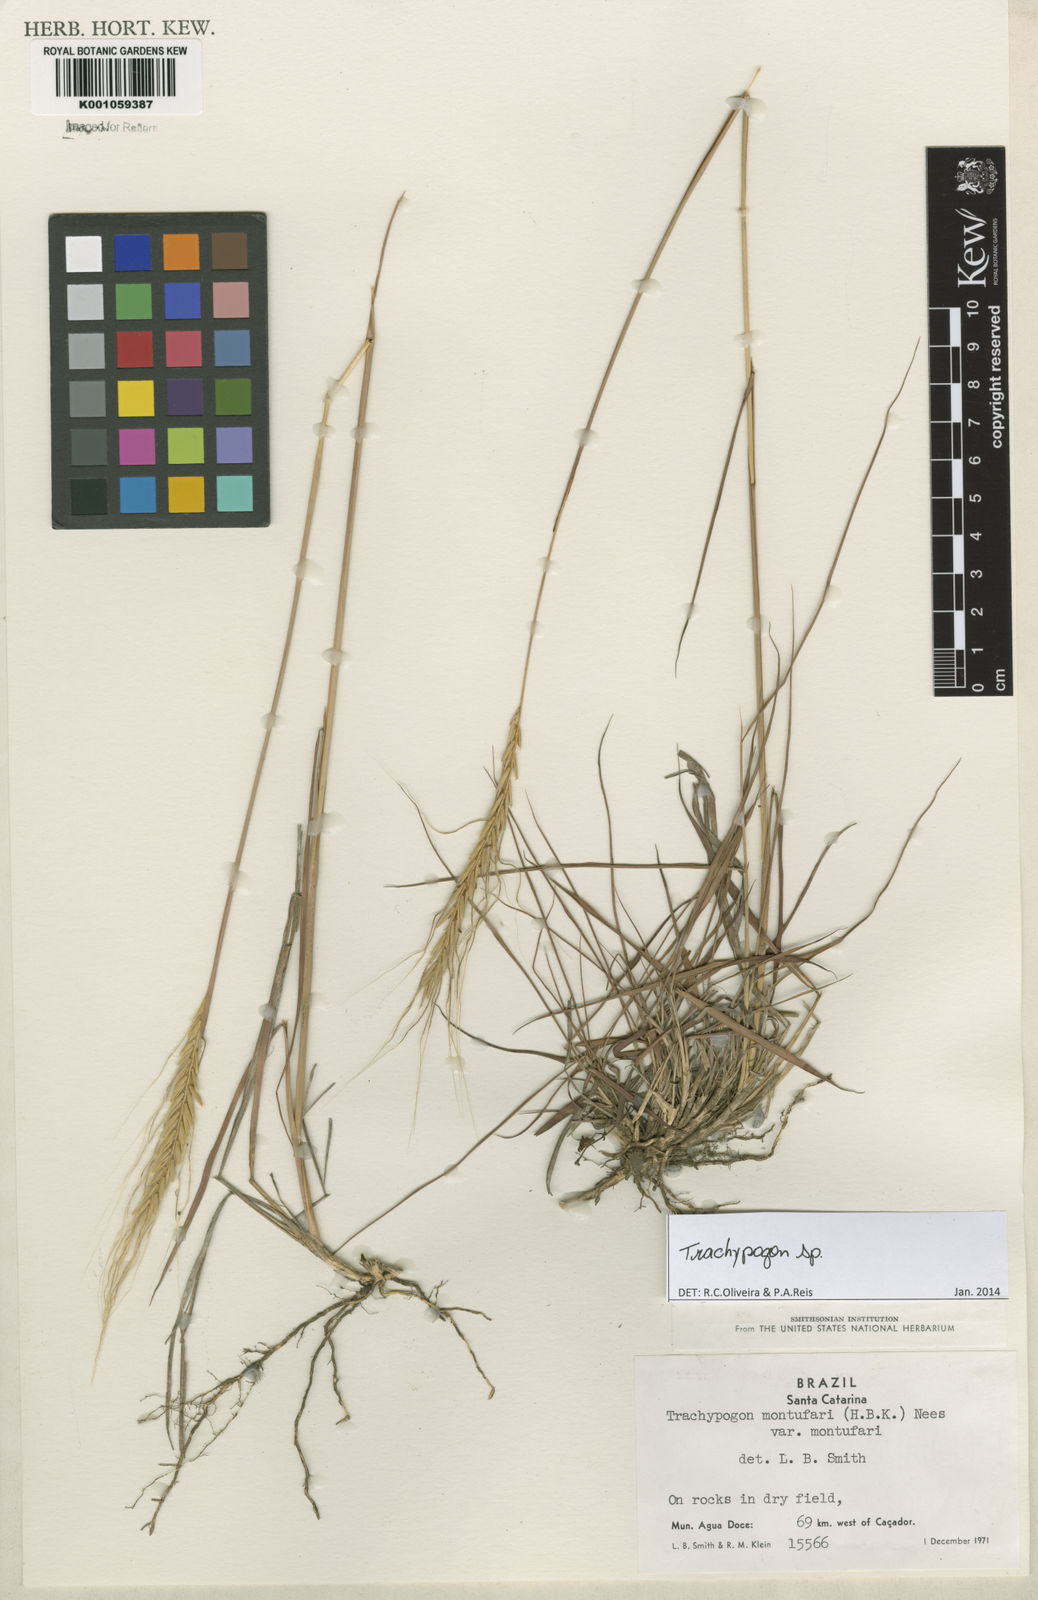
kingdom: Plantae
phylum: Tracheophyta
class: Liliopsida
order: Poales
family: Poaceae
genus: Trachypogon
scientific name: Trachypogon
